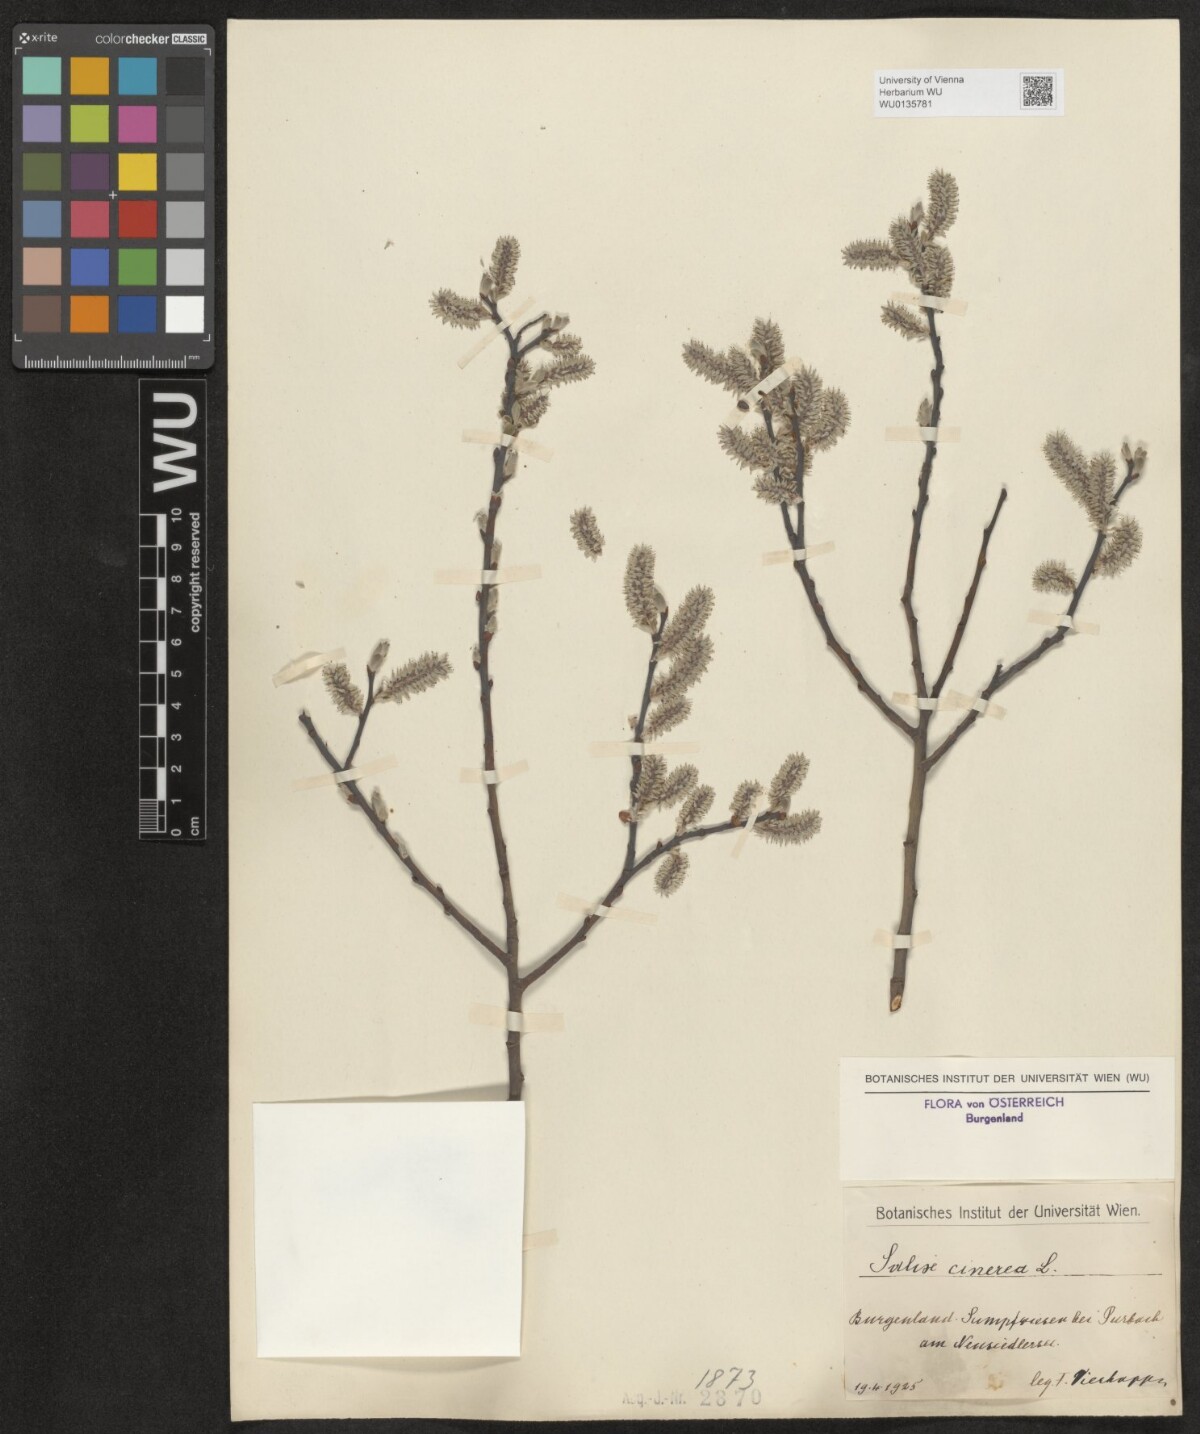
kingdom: Plantae
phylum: Tracheophyta
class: Magnoliopsida
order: Malpighiales
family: Salicaceae
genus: Salix
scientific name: Salix cinerea
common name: Common sallow
